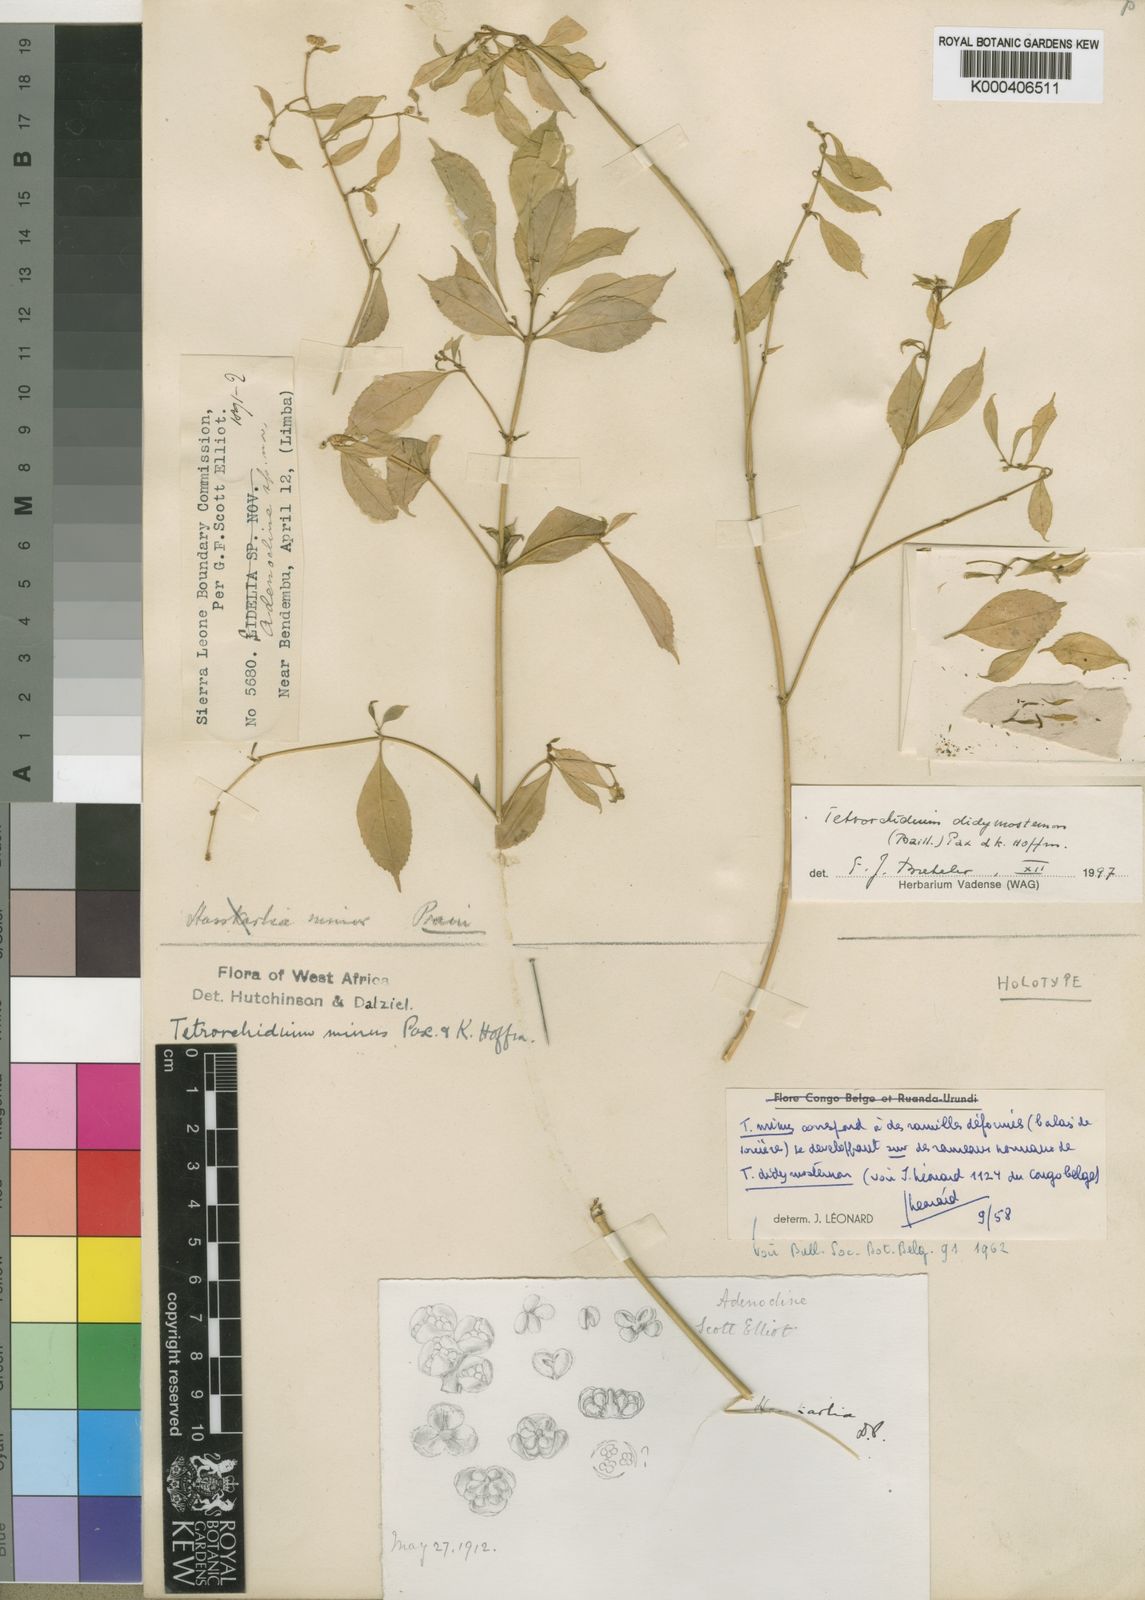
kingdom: Plantae
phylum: Tracheophyta
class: Magnoliopsida
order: Malpighiales
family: Euphorbiaceae
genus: Tetrorchidium
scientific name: Tetrorchidium didymostemon
